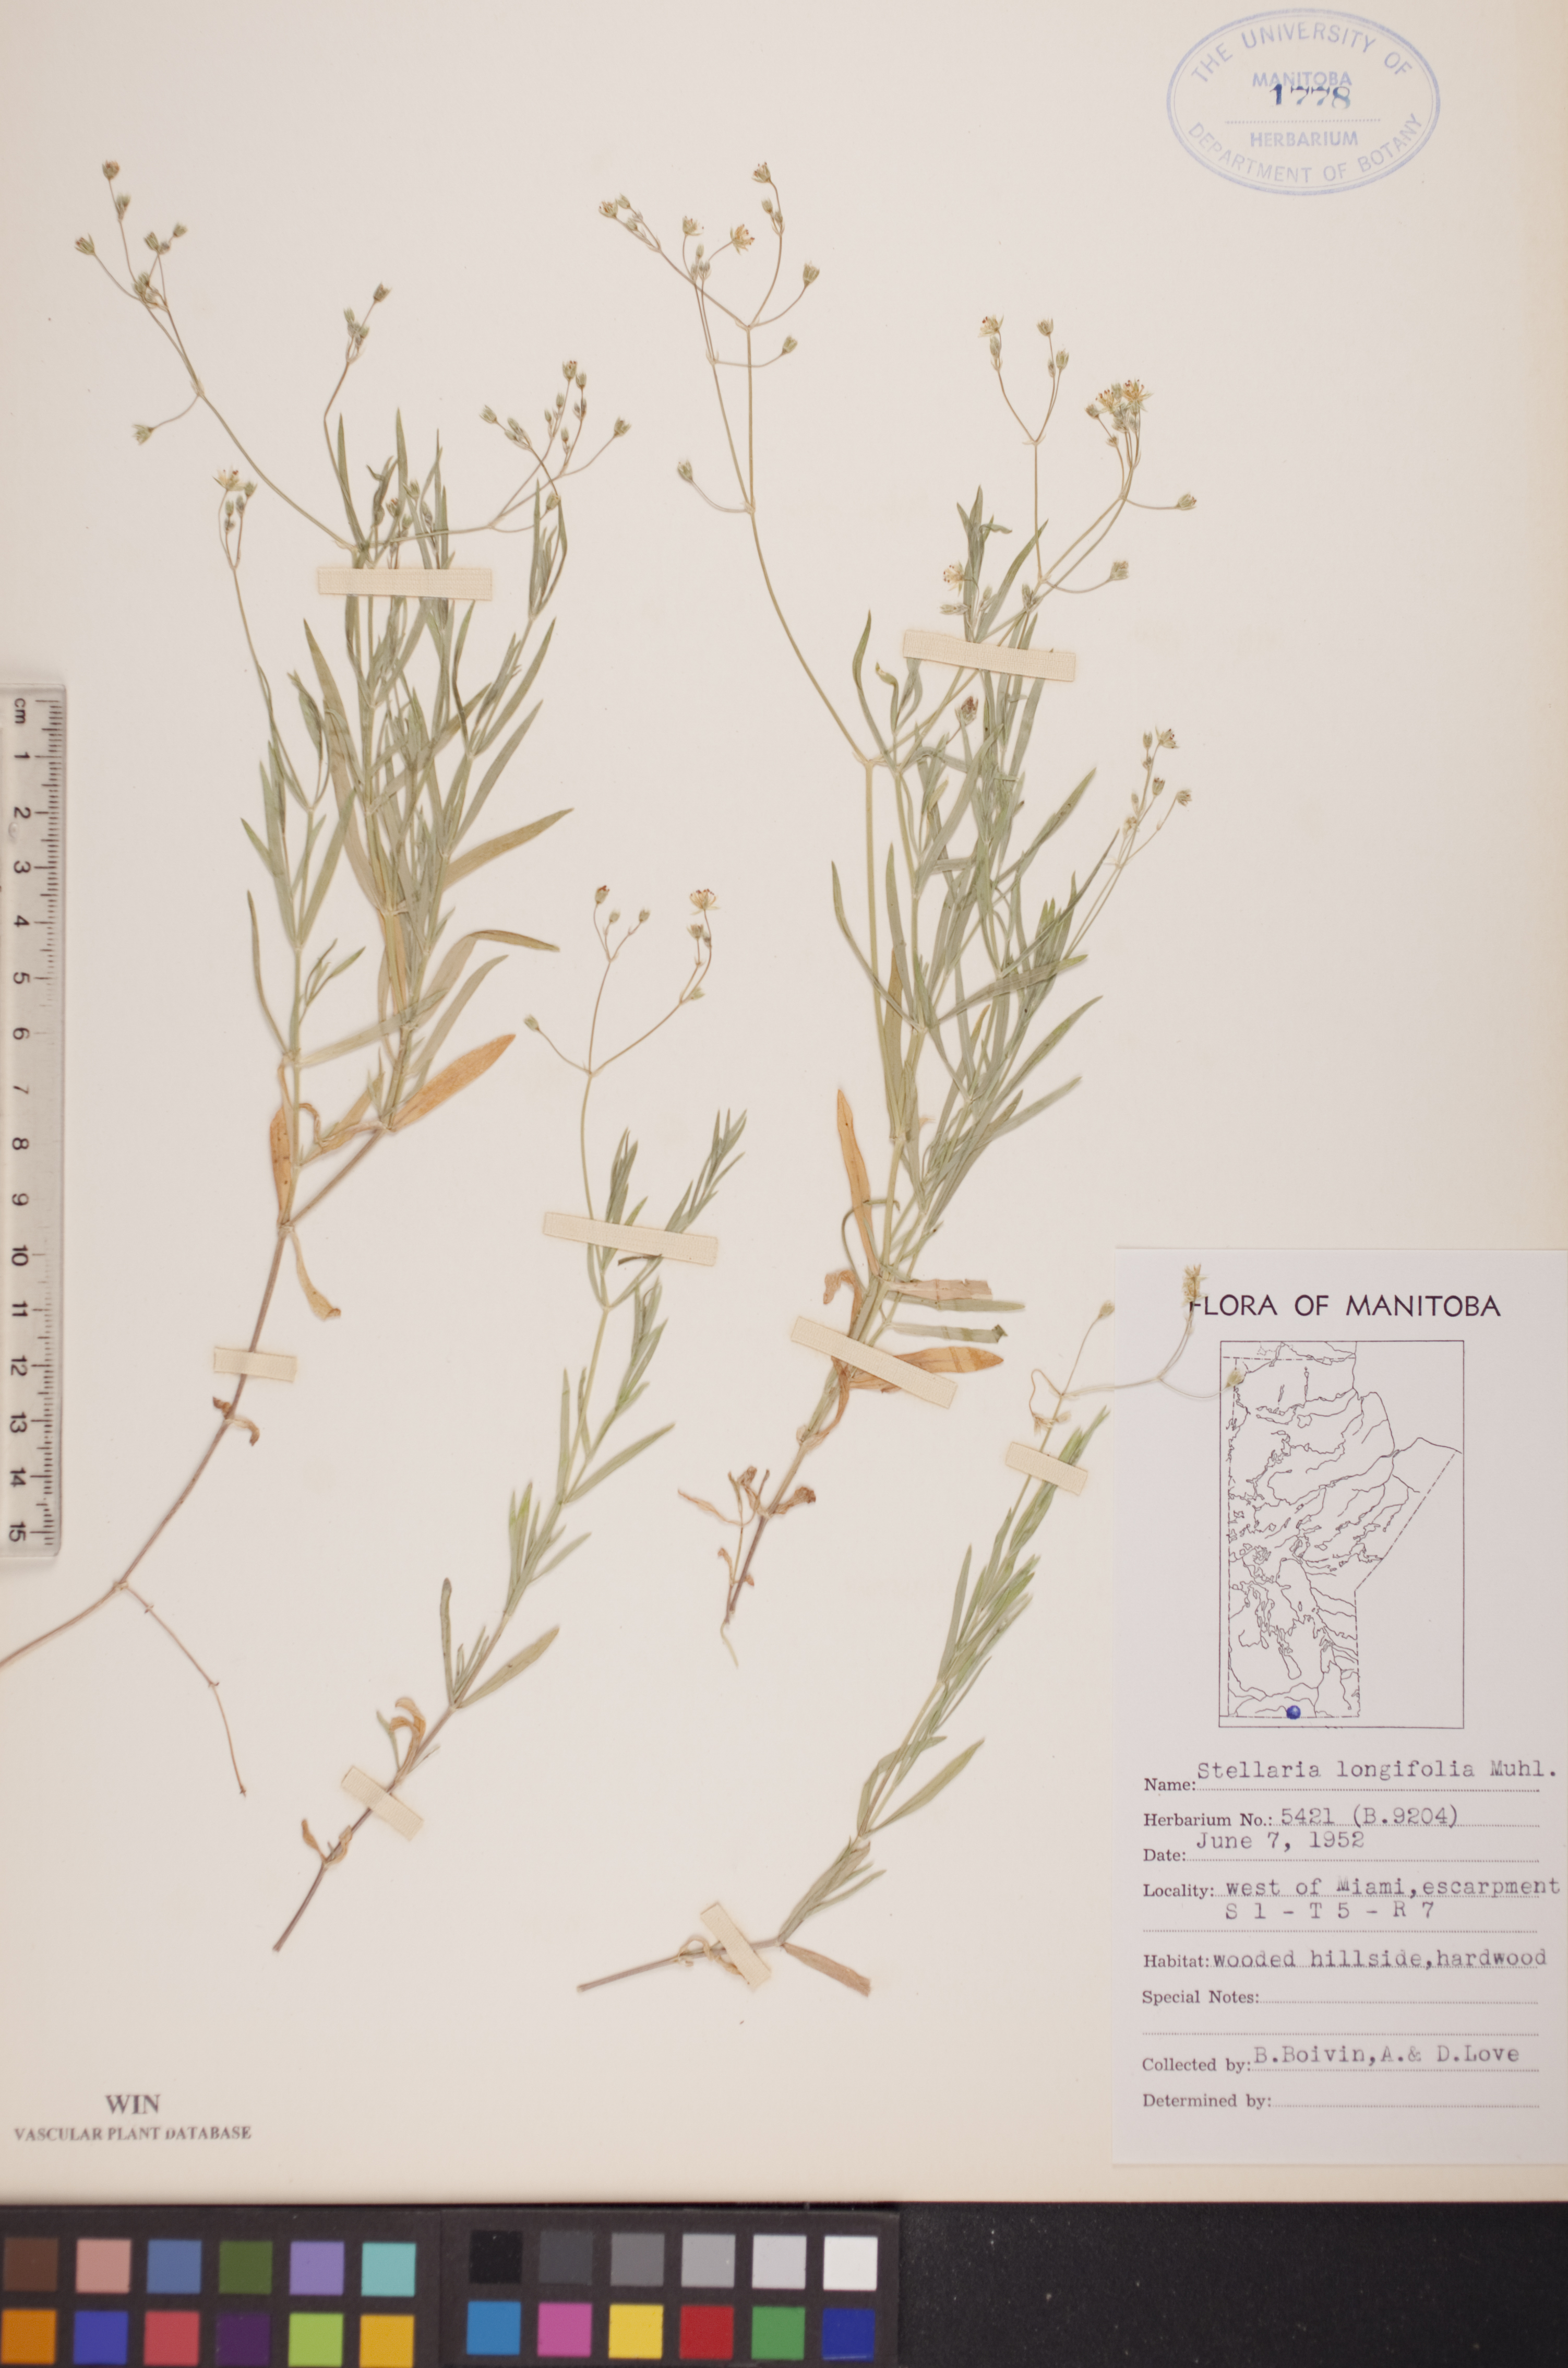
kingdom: Plantae
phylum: Tracheophyta
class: Magnoliopsida
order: Caryophyllales
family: Caryophyllaceae
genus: Stellaria
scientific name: Stellaria longifolia
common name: Long-leaved chickweed
